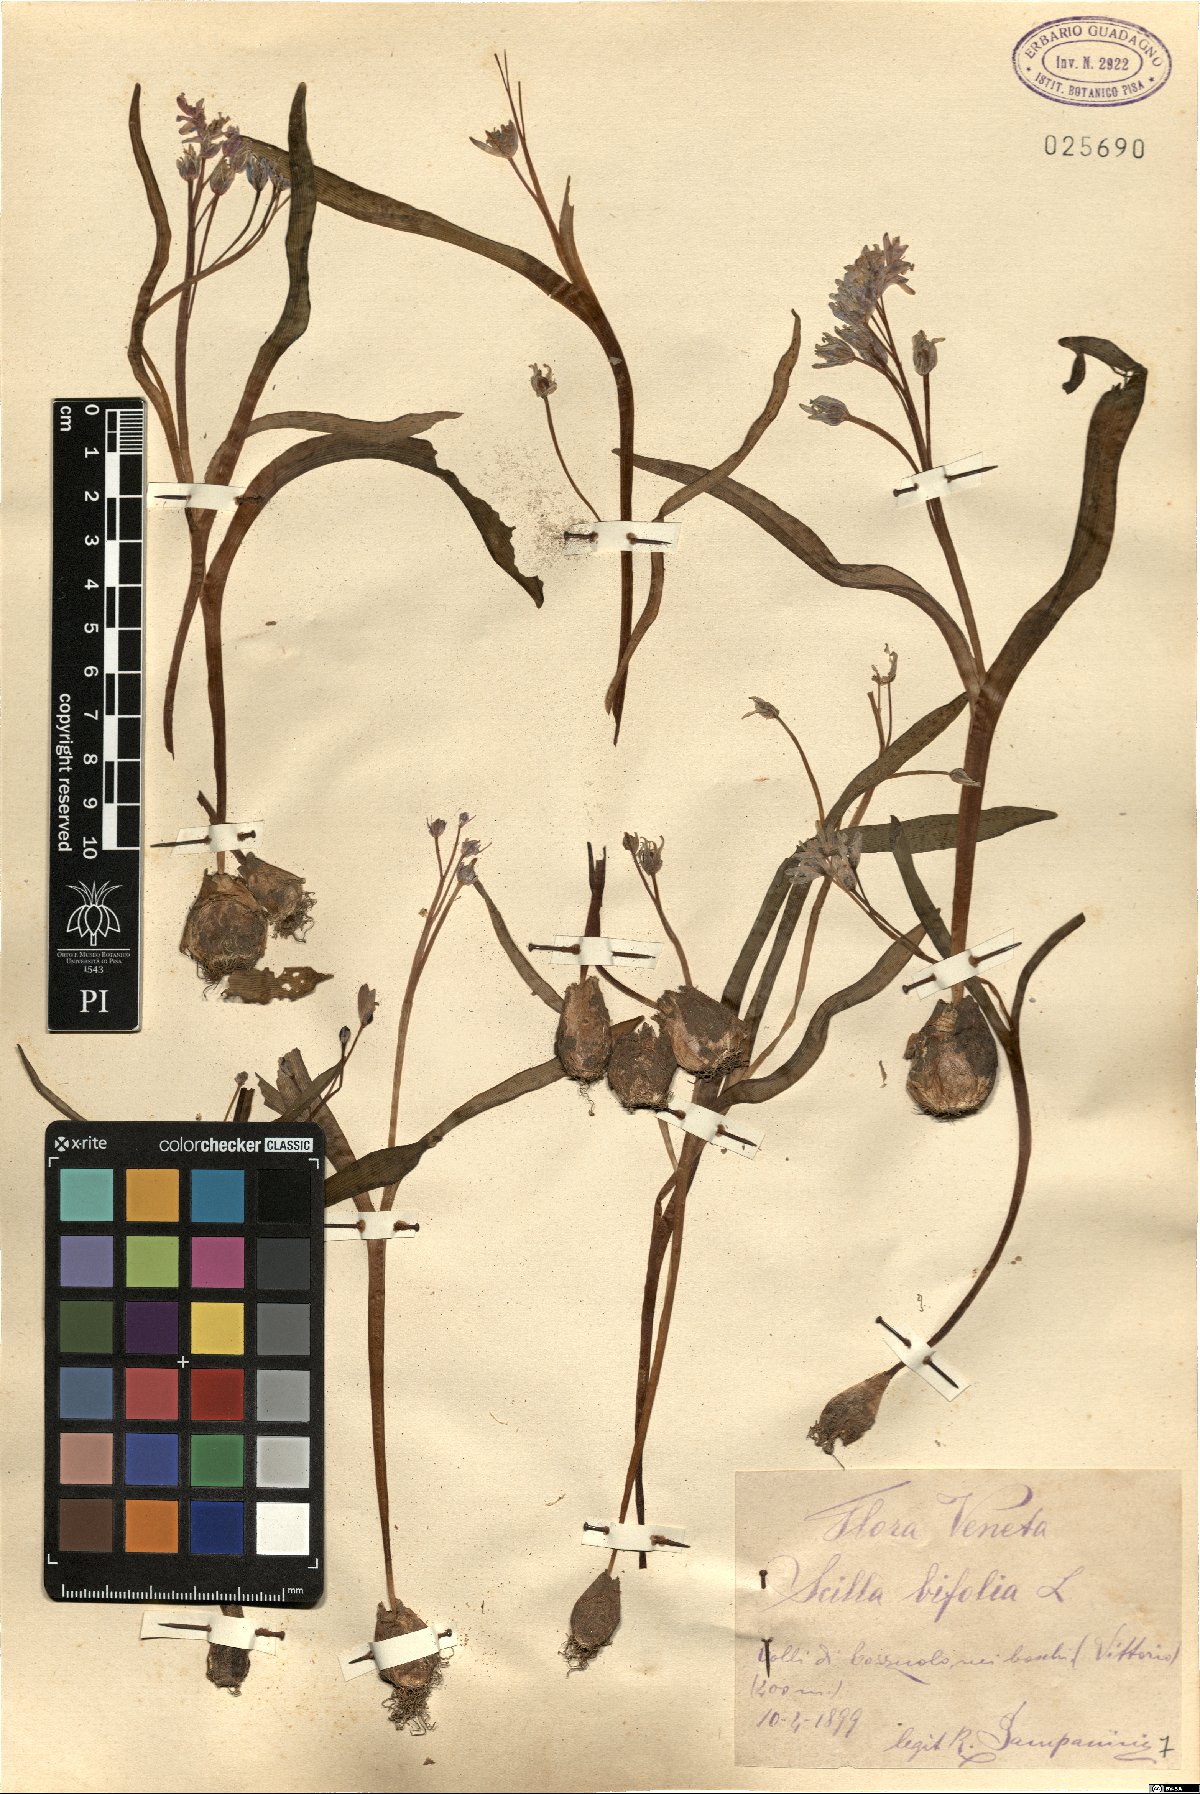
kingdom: Plantae
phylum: Tracheophyta
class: Liliopsida
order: Asparagales
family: Asparagaceae
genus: Scilla
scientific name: Scilla bifolia
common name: Alpine squill
